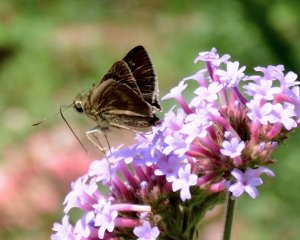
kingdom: Animalia
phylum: Arthropoda
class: Insecta
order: Lepidoptera
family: Hesperiidae
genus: Polites
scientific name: Polites egeremet
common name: Northern Broken-Dash
